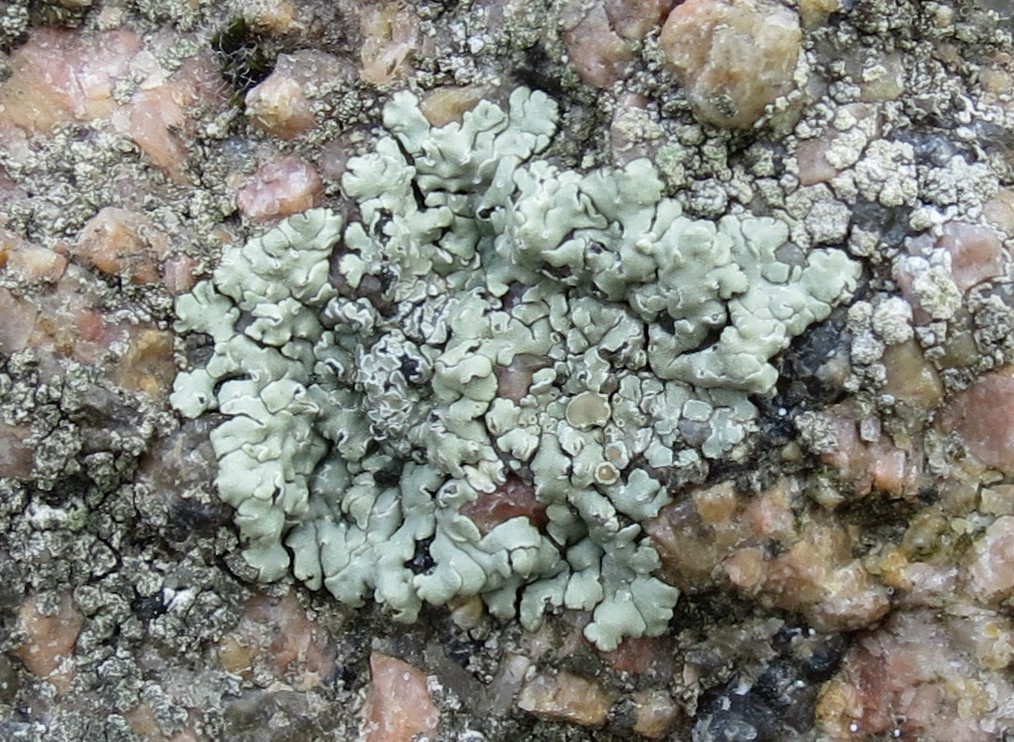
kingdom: Fungi
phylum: Ascomycota
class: Lecanoromycetes
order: Lecanorales
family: Lecanoraceae
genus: Protoparmeliopsis
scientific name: Protoparmeliopsis muralis
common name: randfliget kantskivelav
